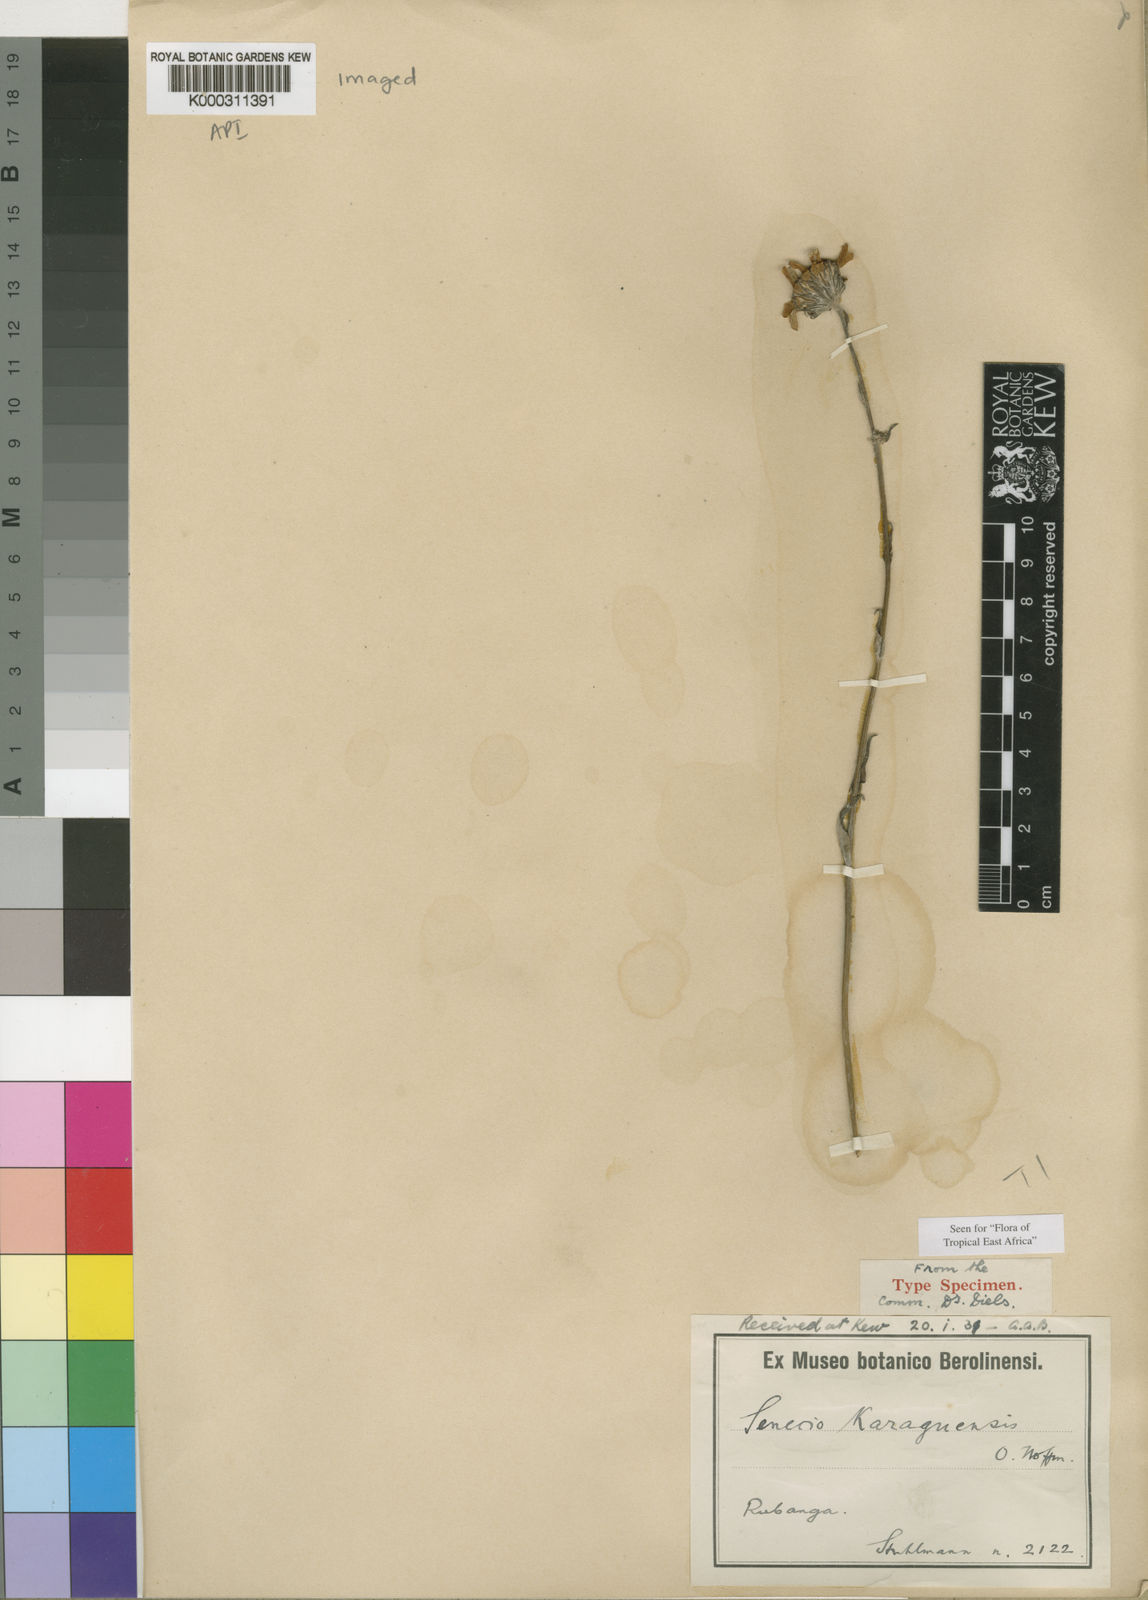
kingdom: Plantae
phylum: Tracheophyta
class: Magnoliopsida
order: Asterales
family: Asteraceae
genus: Senecio
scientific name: Senecio karaguensis
